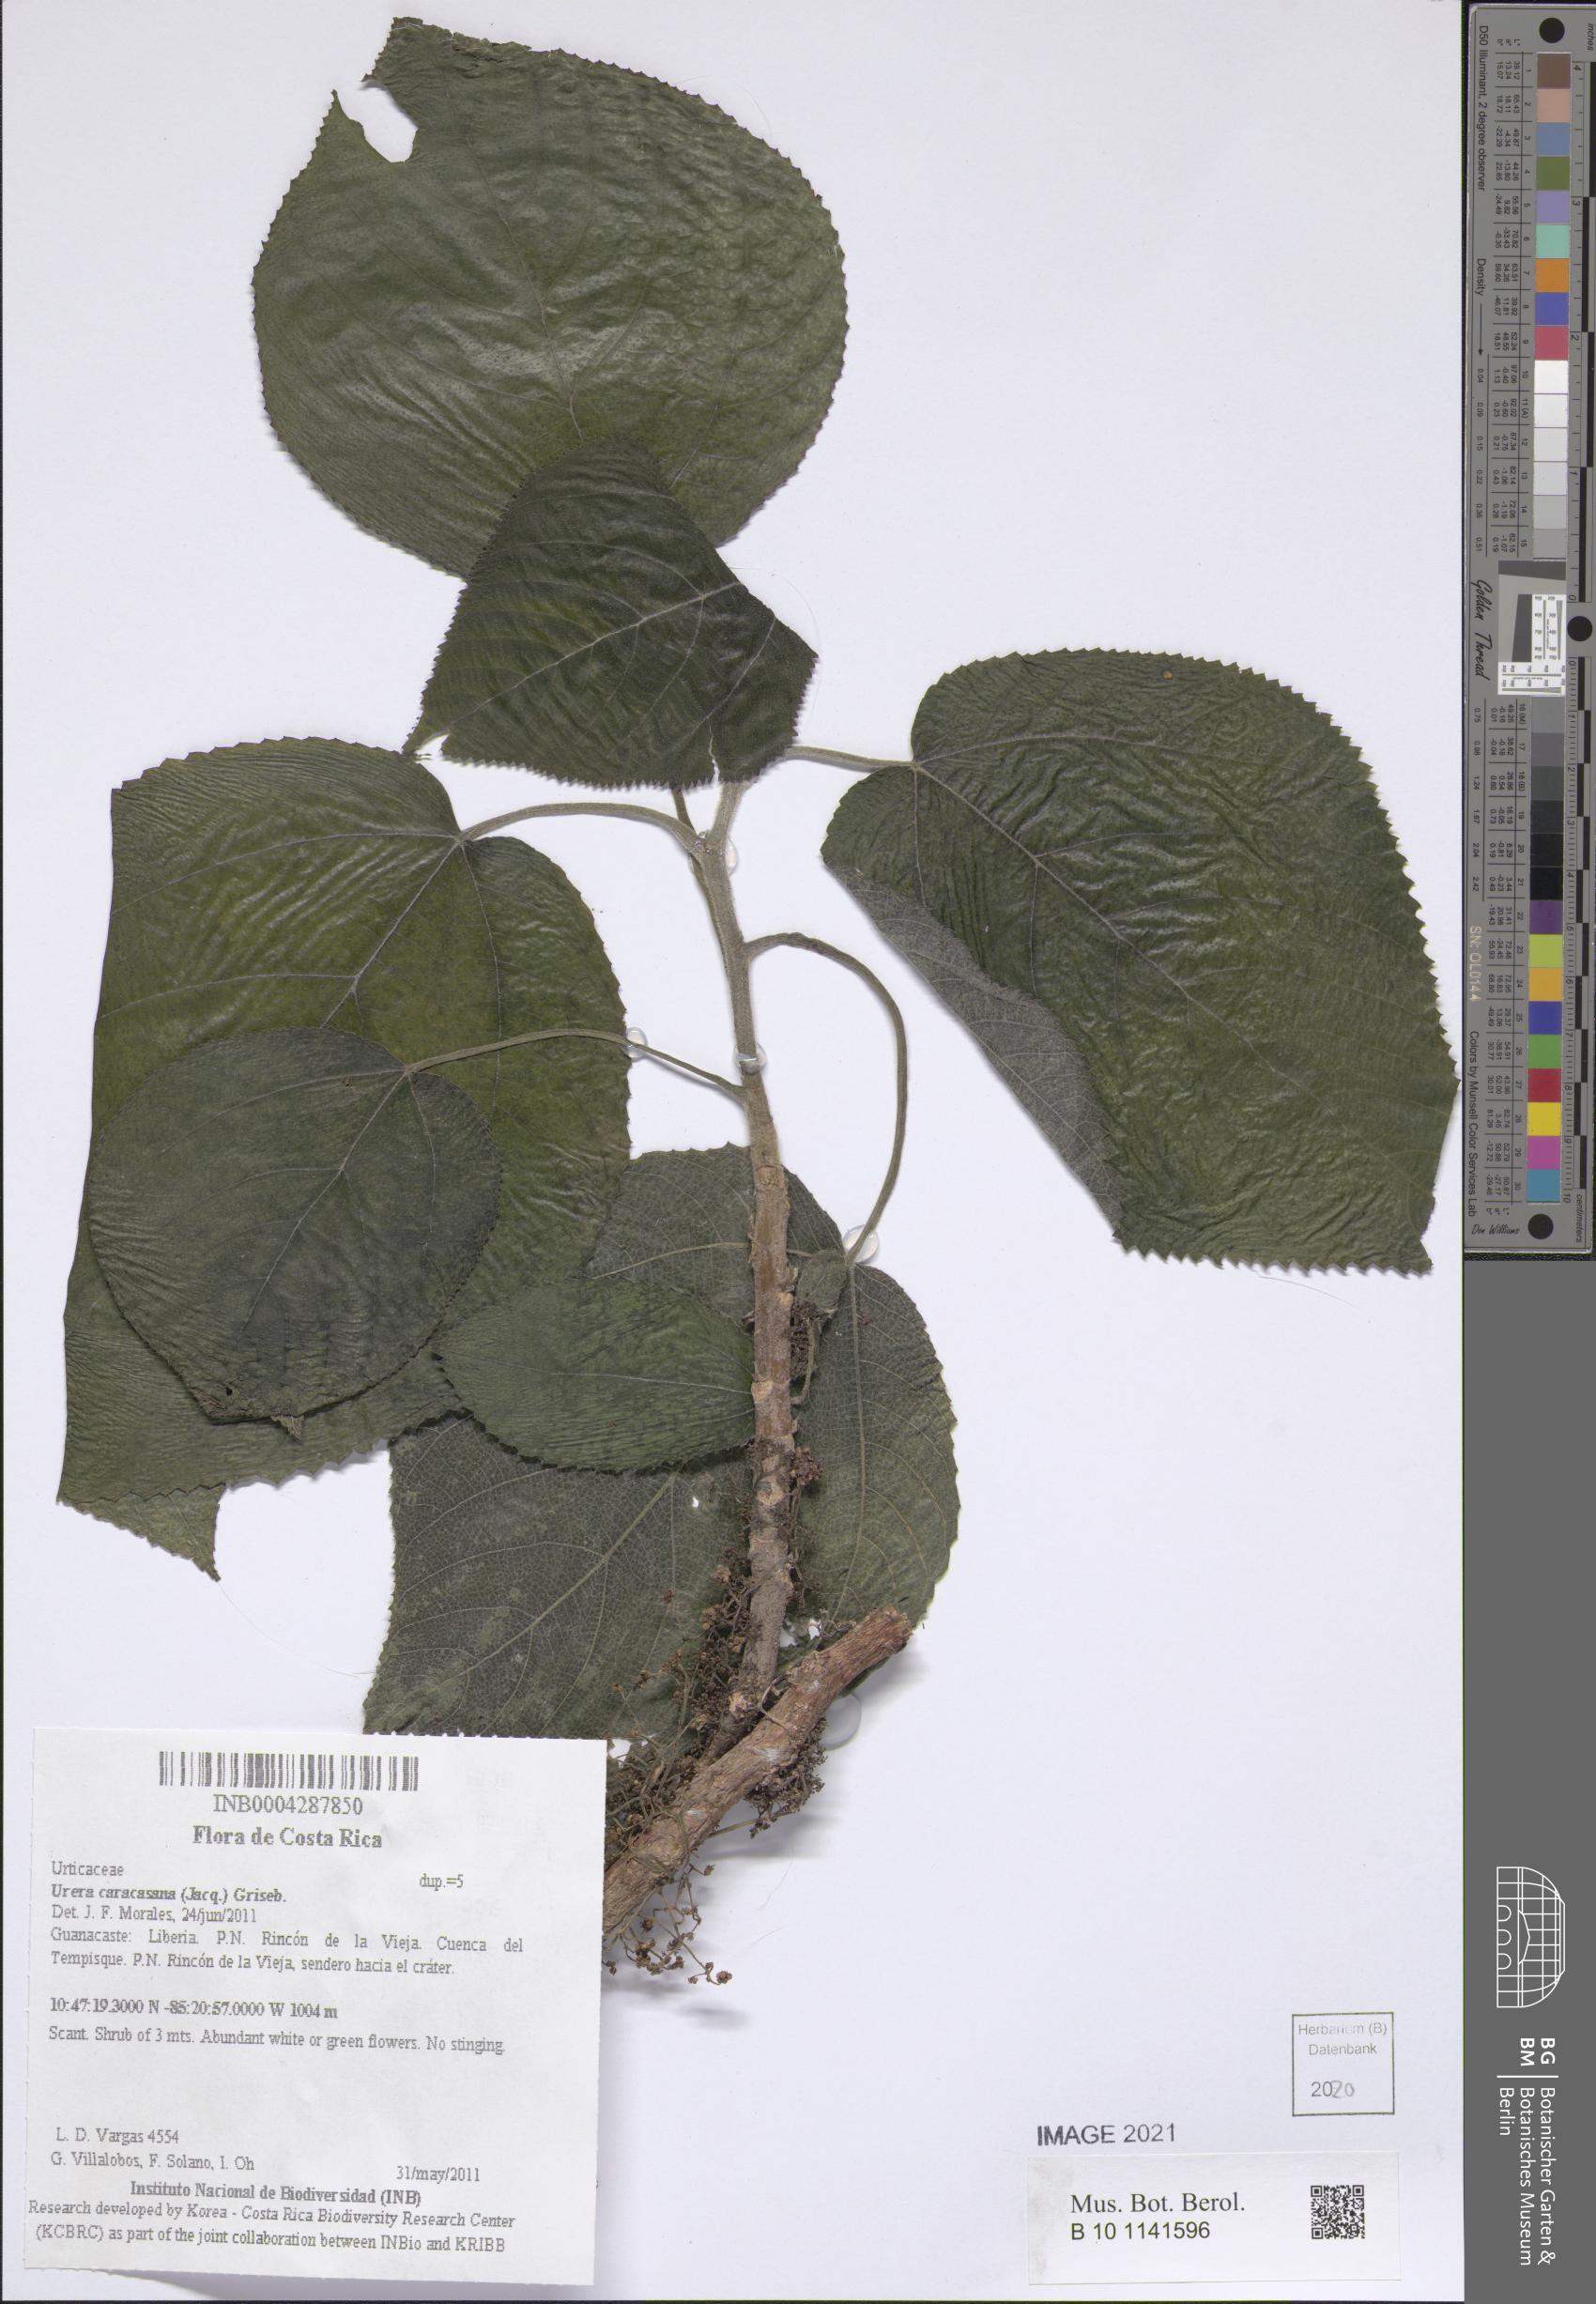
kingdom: Plantae
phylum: Tracheophyta
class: Magnoliopsida
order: Rosales
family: Urticaceae
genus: Urera
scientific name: Urera caracasana
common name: Flameberry
